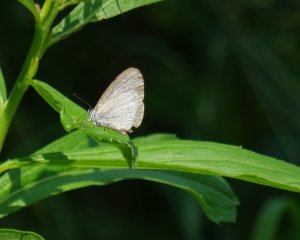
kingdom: Animalia
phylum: Arthropoda
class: Insecta
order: Lepidoptera
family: Lycaenidae
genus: Cyaniris
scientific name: Cyaniris neglecta
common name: Summer Azure
